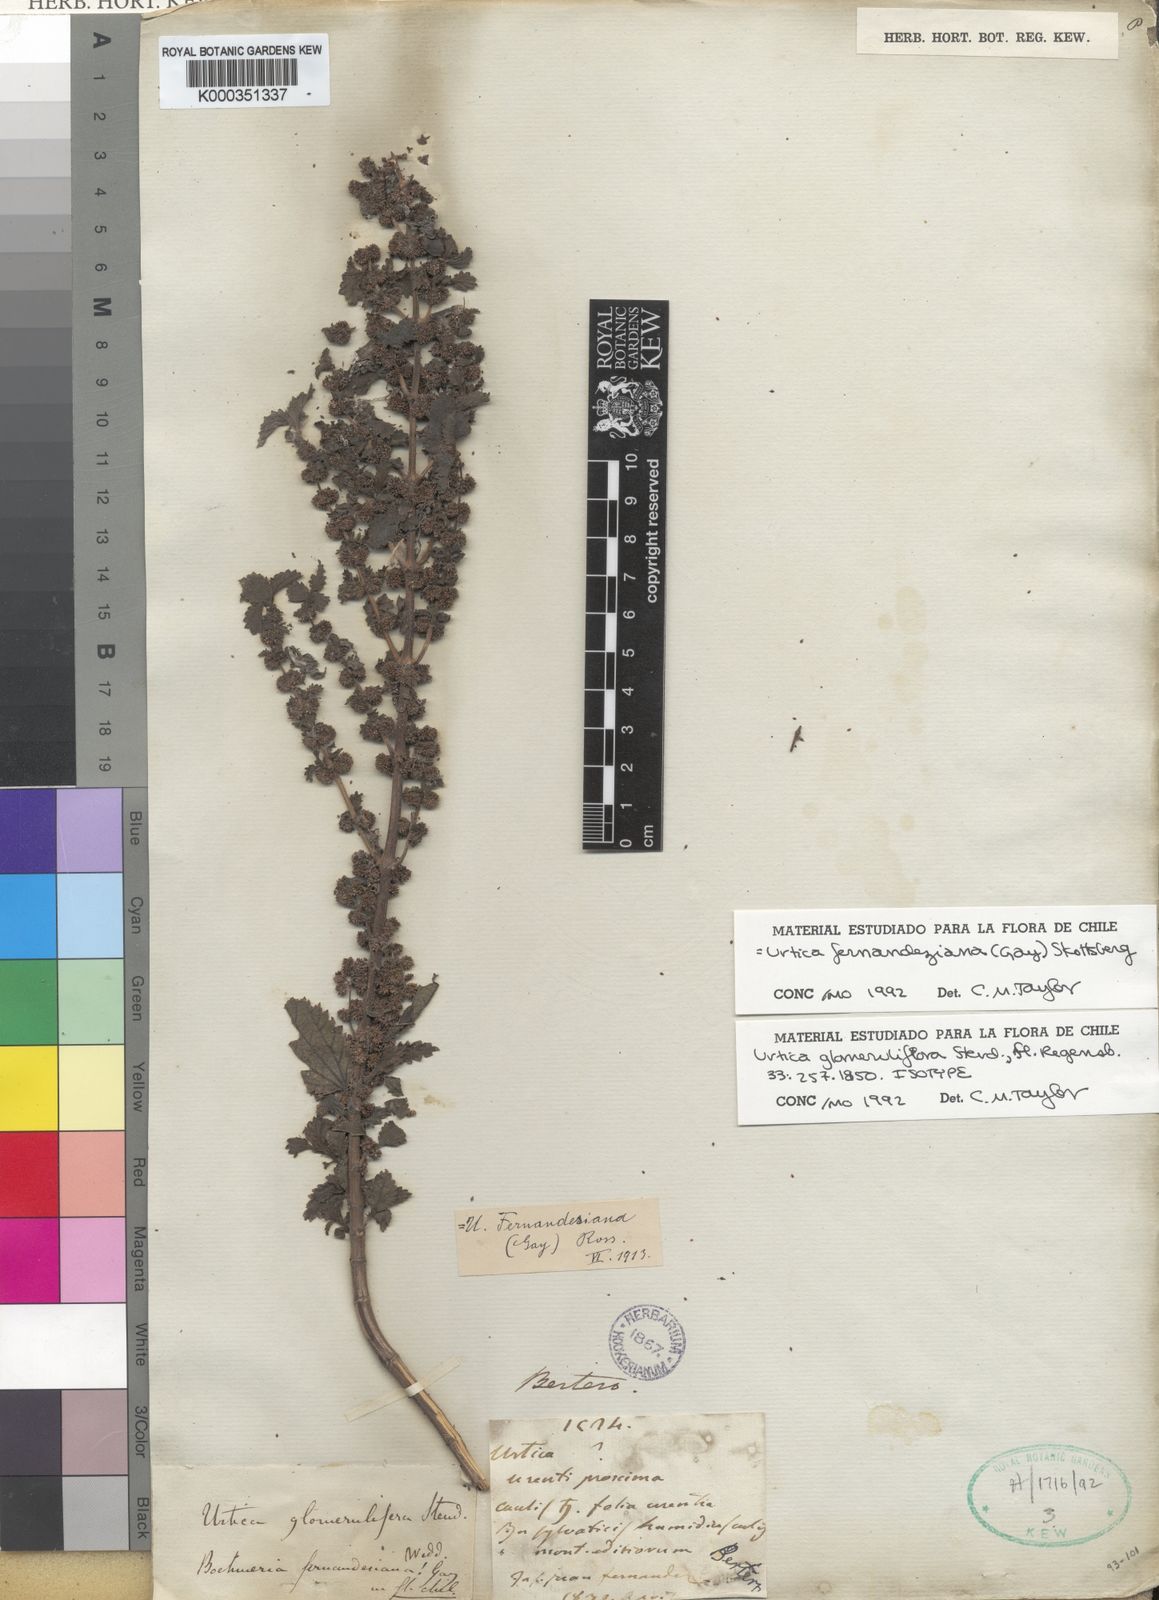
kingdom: Plantae
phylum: Tracheophyta
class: Magnoliopsida
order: Rosales
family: Urticaceae
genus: Urtica
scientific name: Urtica glomeruliflora
